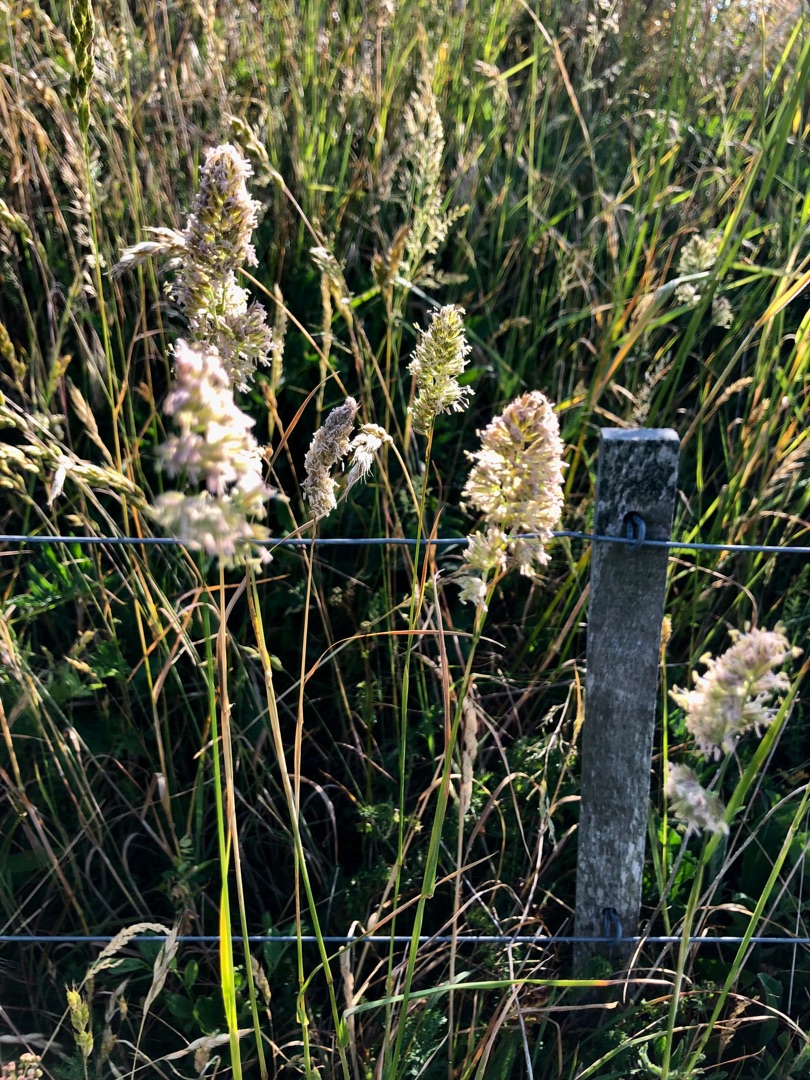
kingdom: Plantae
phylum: Tracheophyta
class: Liliopsida
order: Poales
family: Poaceae
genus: Dactylis
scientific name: Dactylis glomerata
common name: Almindelig hundegræs
